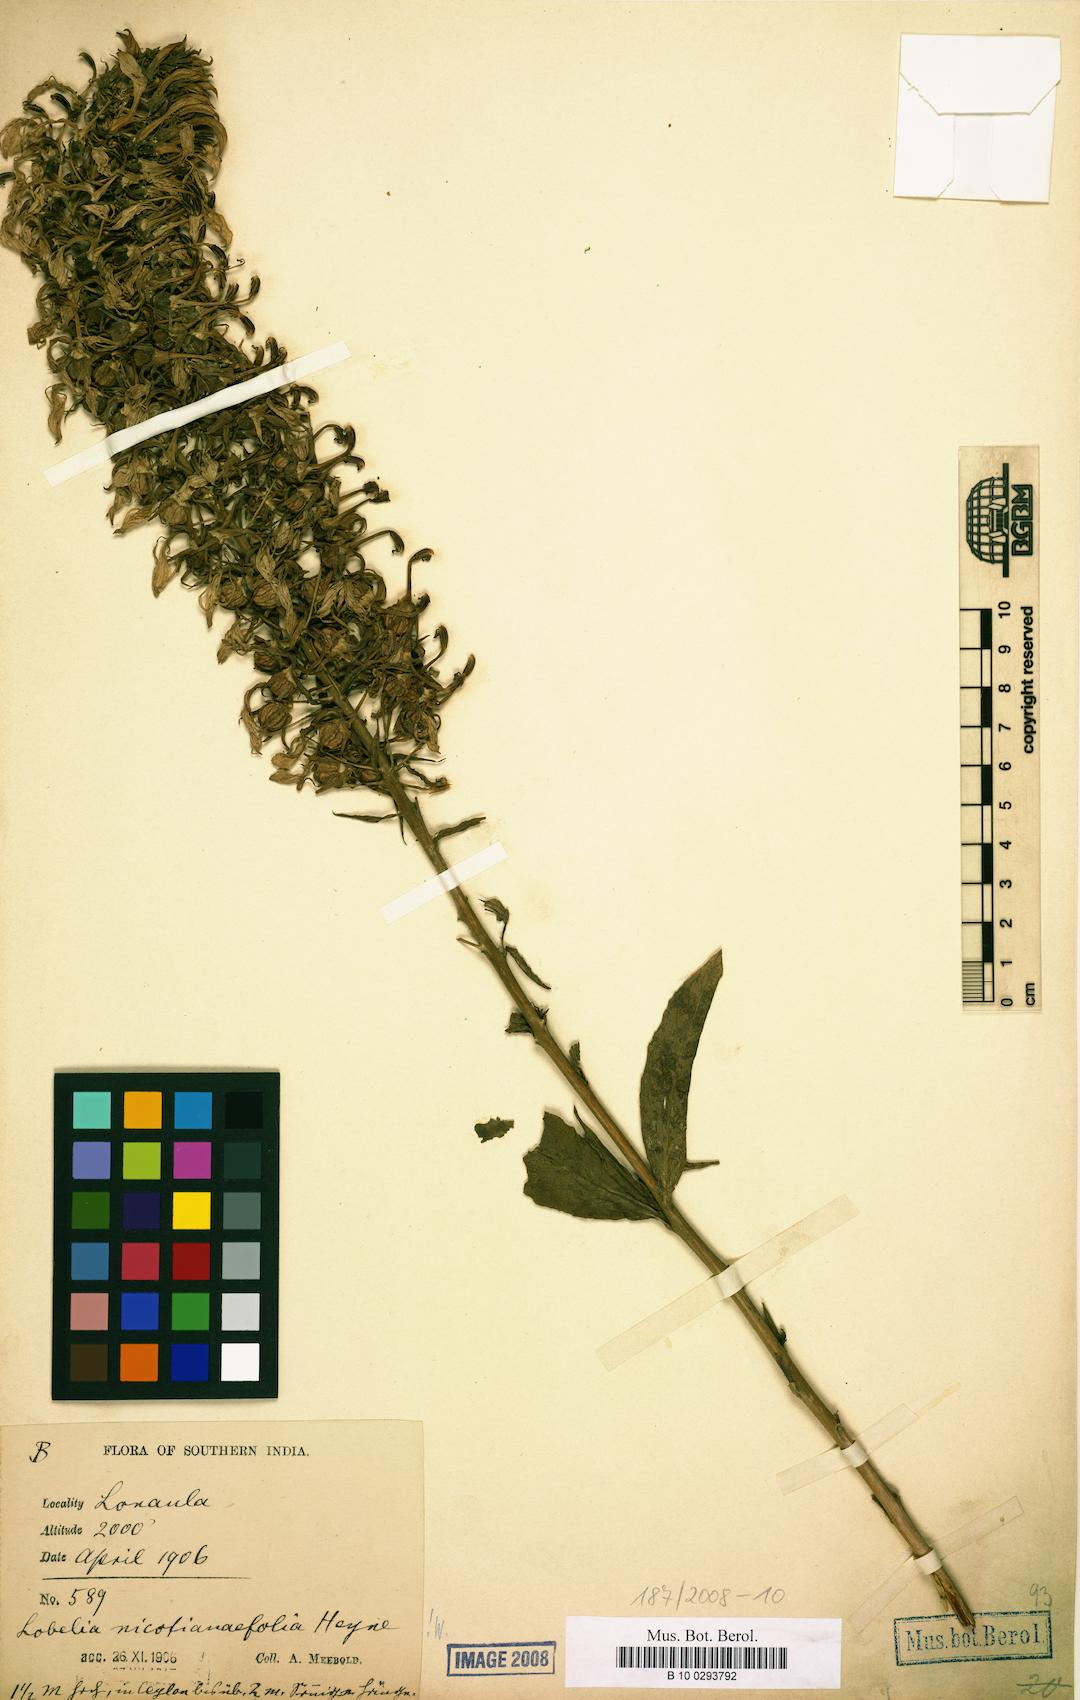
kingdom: Plantae
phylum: Tracheophyta
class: Magnoliopsida
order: Asterales
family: Campanulaceae
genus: Lobelia
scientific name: Lobelia nicotianifolia
